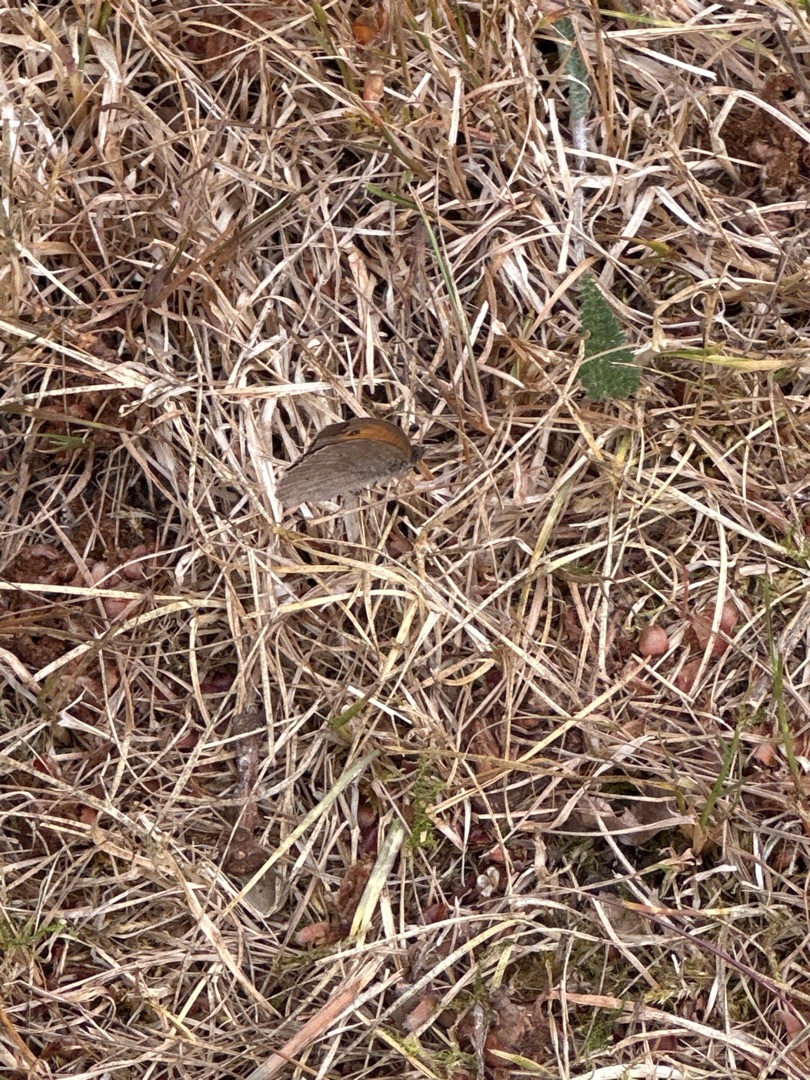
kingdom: Animalia
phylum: Arthropoda
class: Insecta
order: Lepidoptera
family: Nymphalidae
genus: Maniola
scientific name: Maniola jurtina
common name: Græsrandøje
